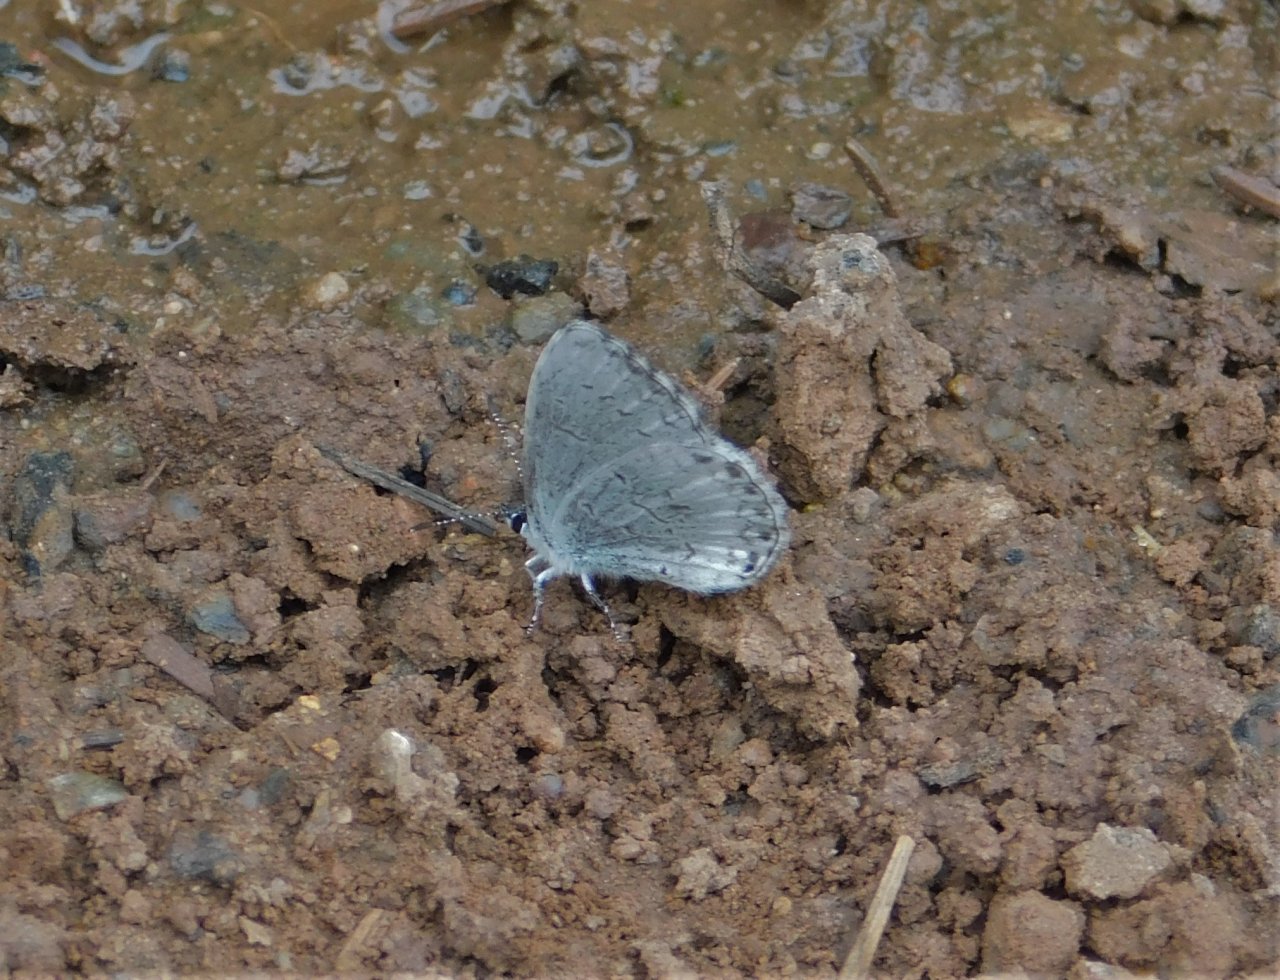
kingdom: Animalia
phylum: Arthropoda
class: Insecta
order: Lepidoptera
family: Lycaenidae
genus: Celastrina
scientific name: Celastrina lucia
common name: Northern Spring Azure
